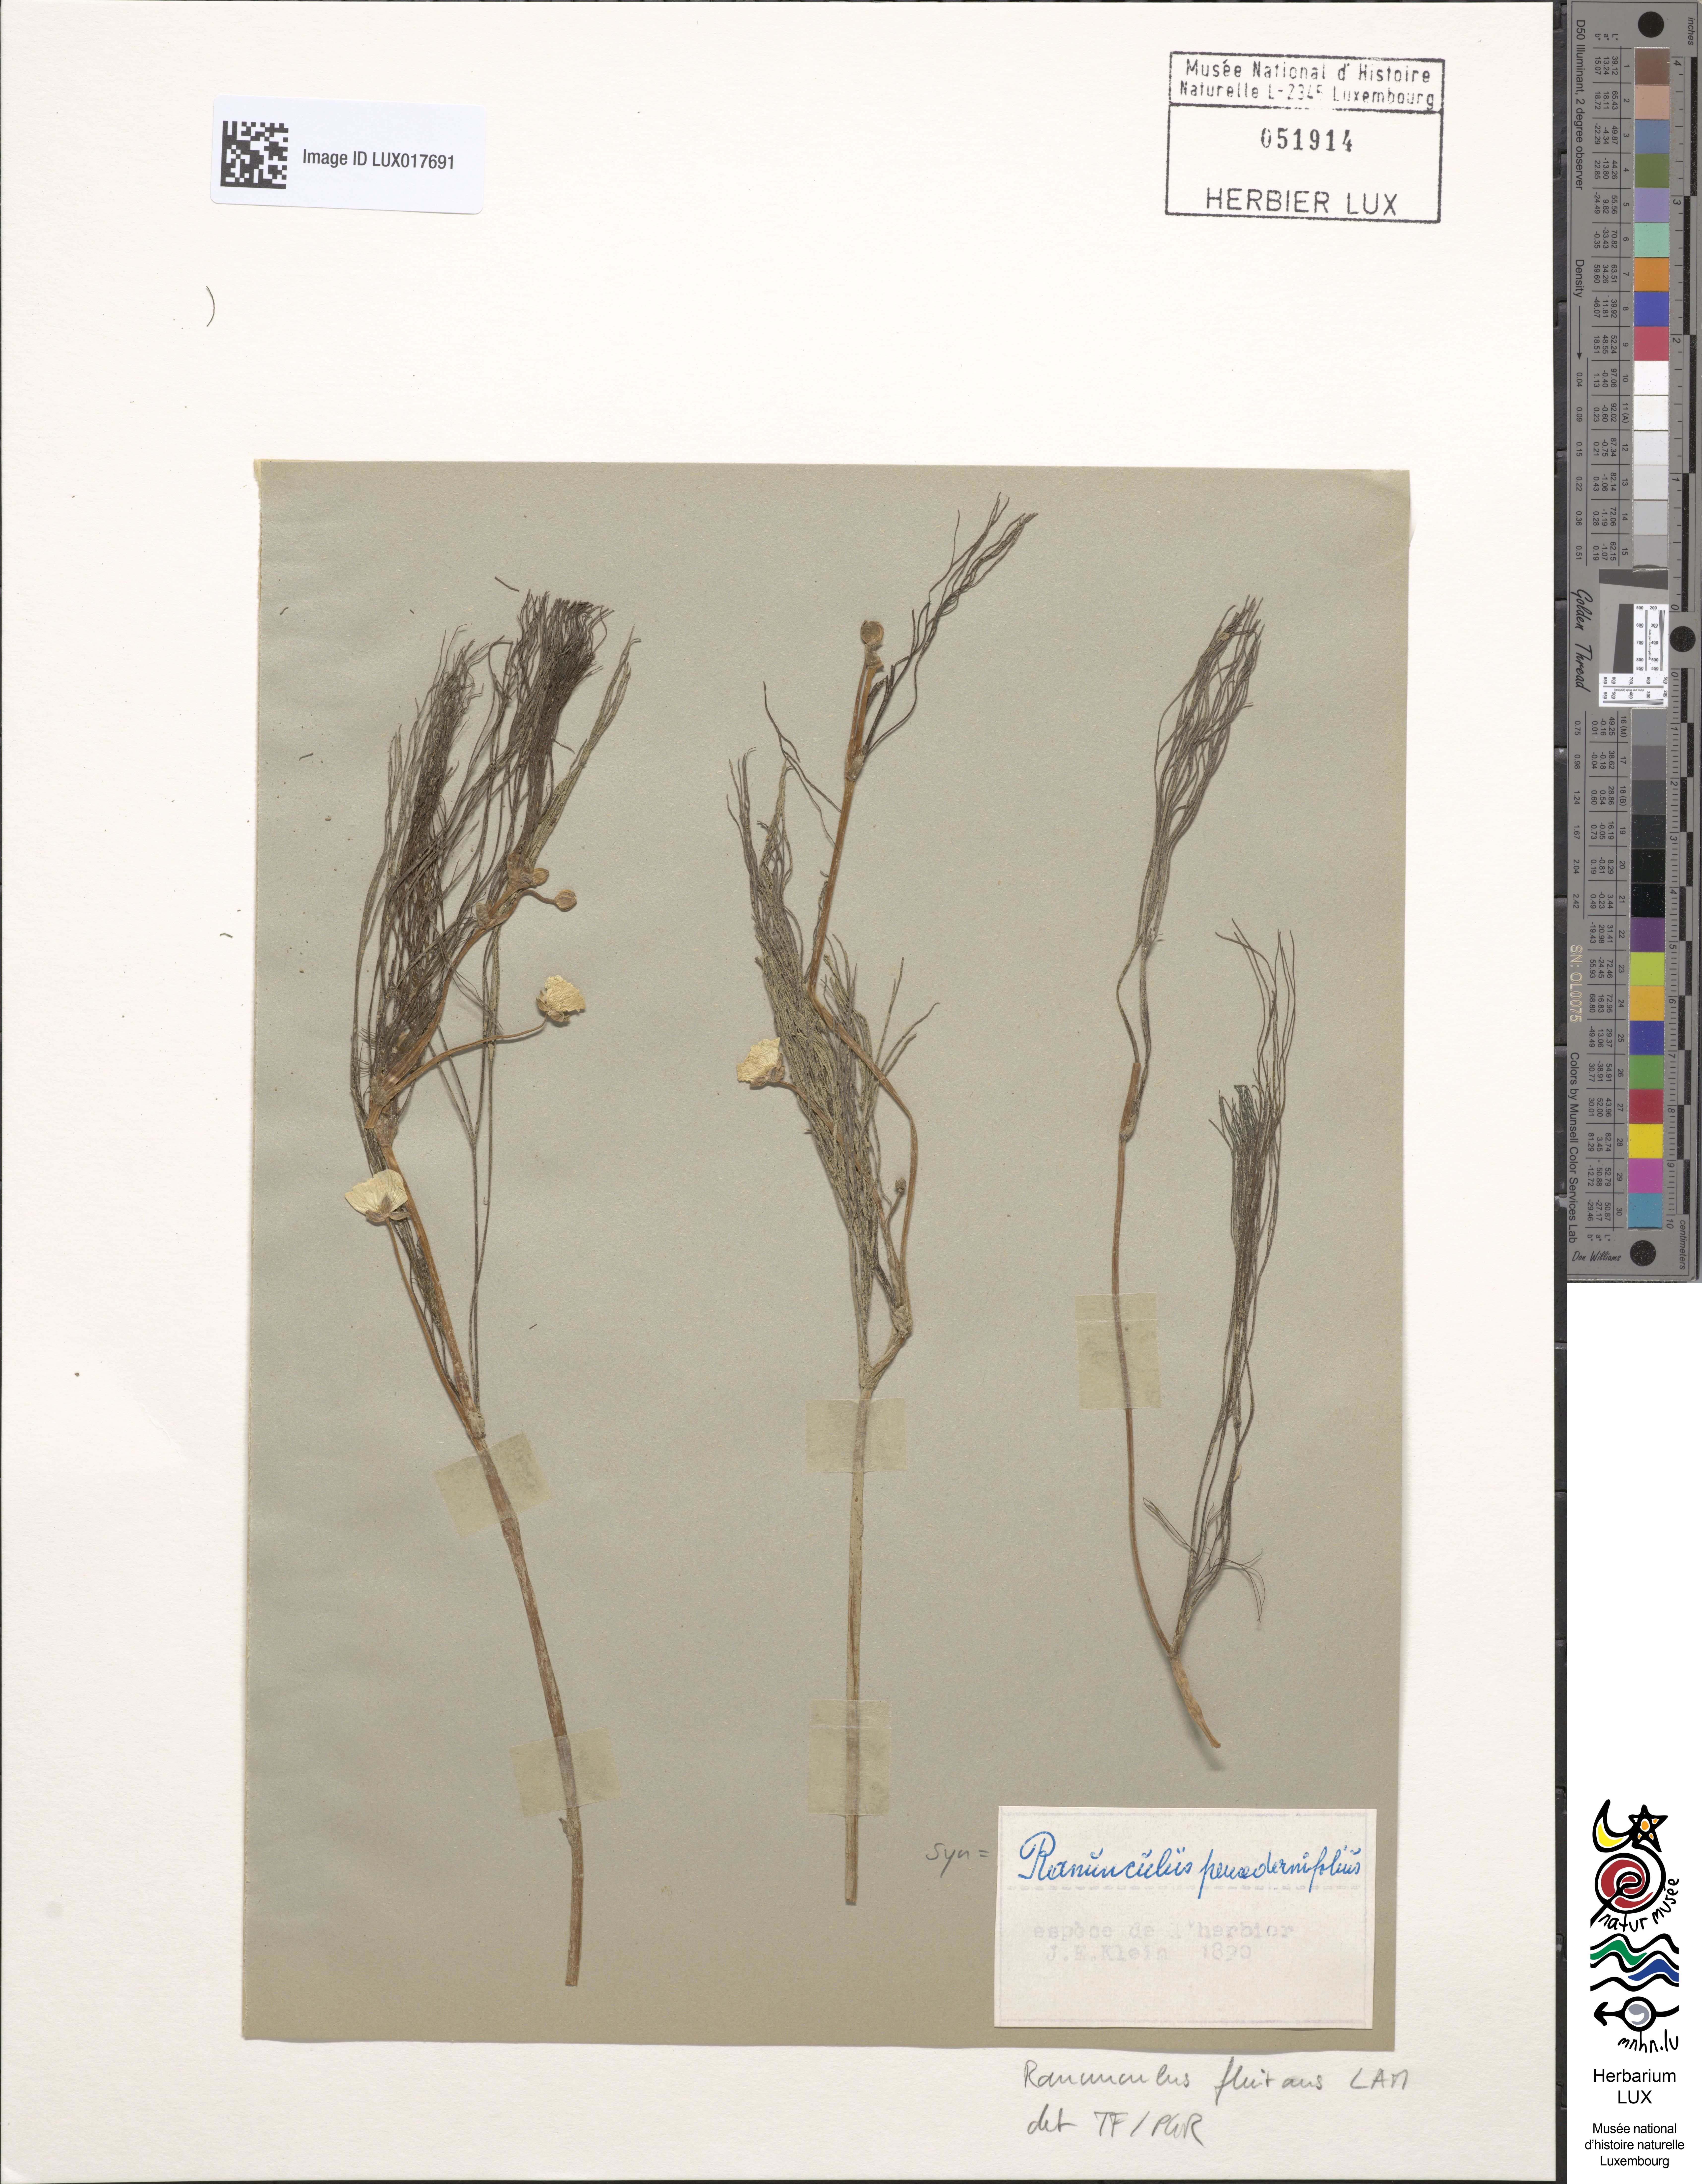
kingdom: Plantae
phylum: Tracheophyta
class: Magnoliopsida
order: Ranunculales
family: Ranunculaceae
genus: Ranunculus
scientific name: Ranunculus fluitans
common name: River water-crowfoot
